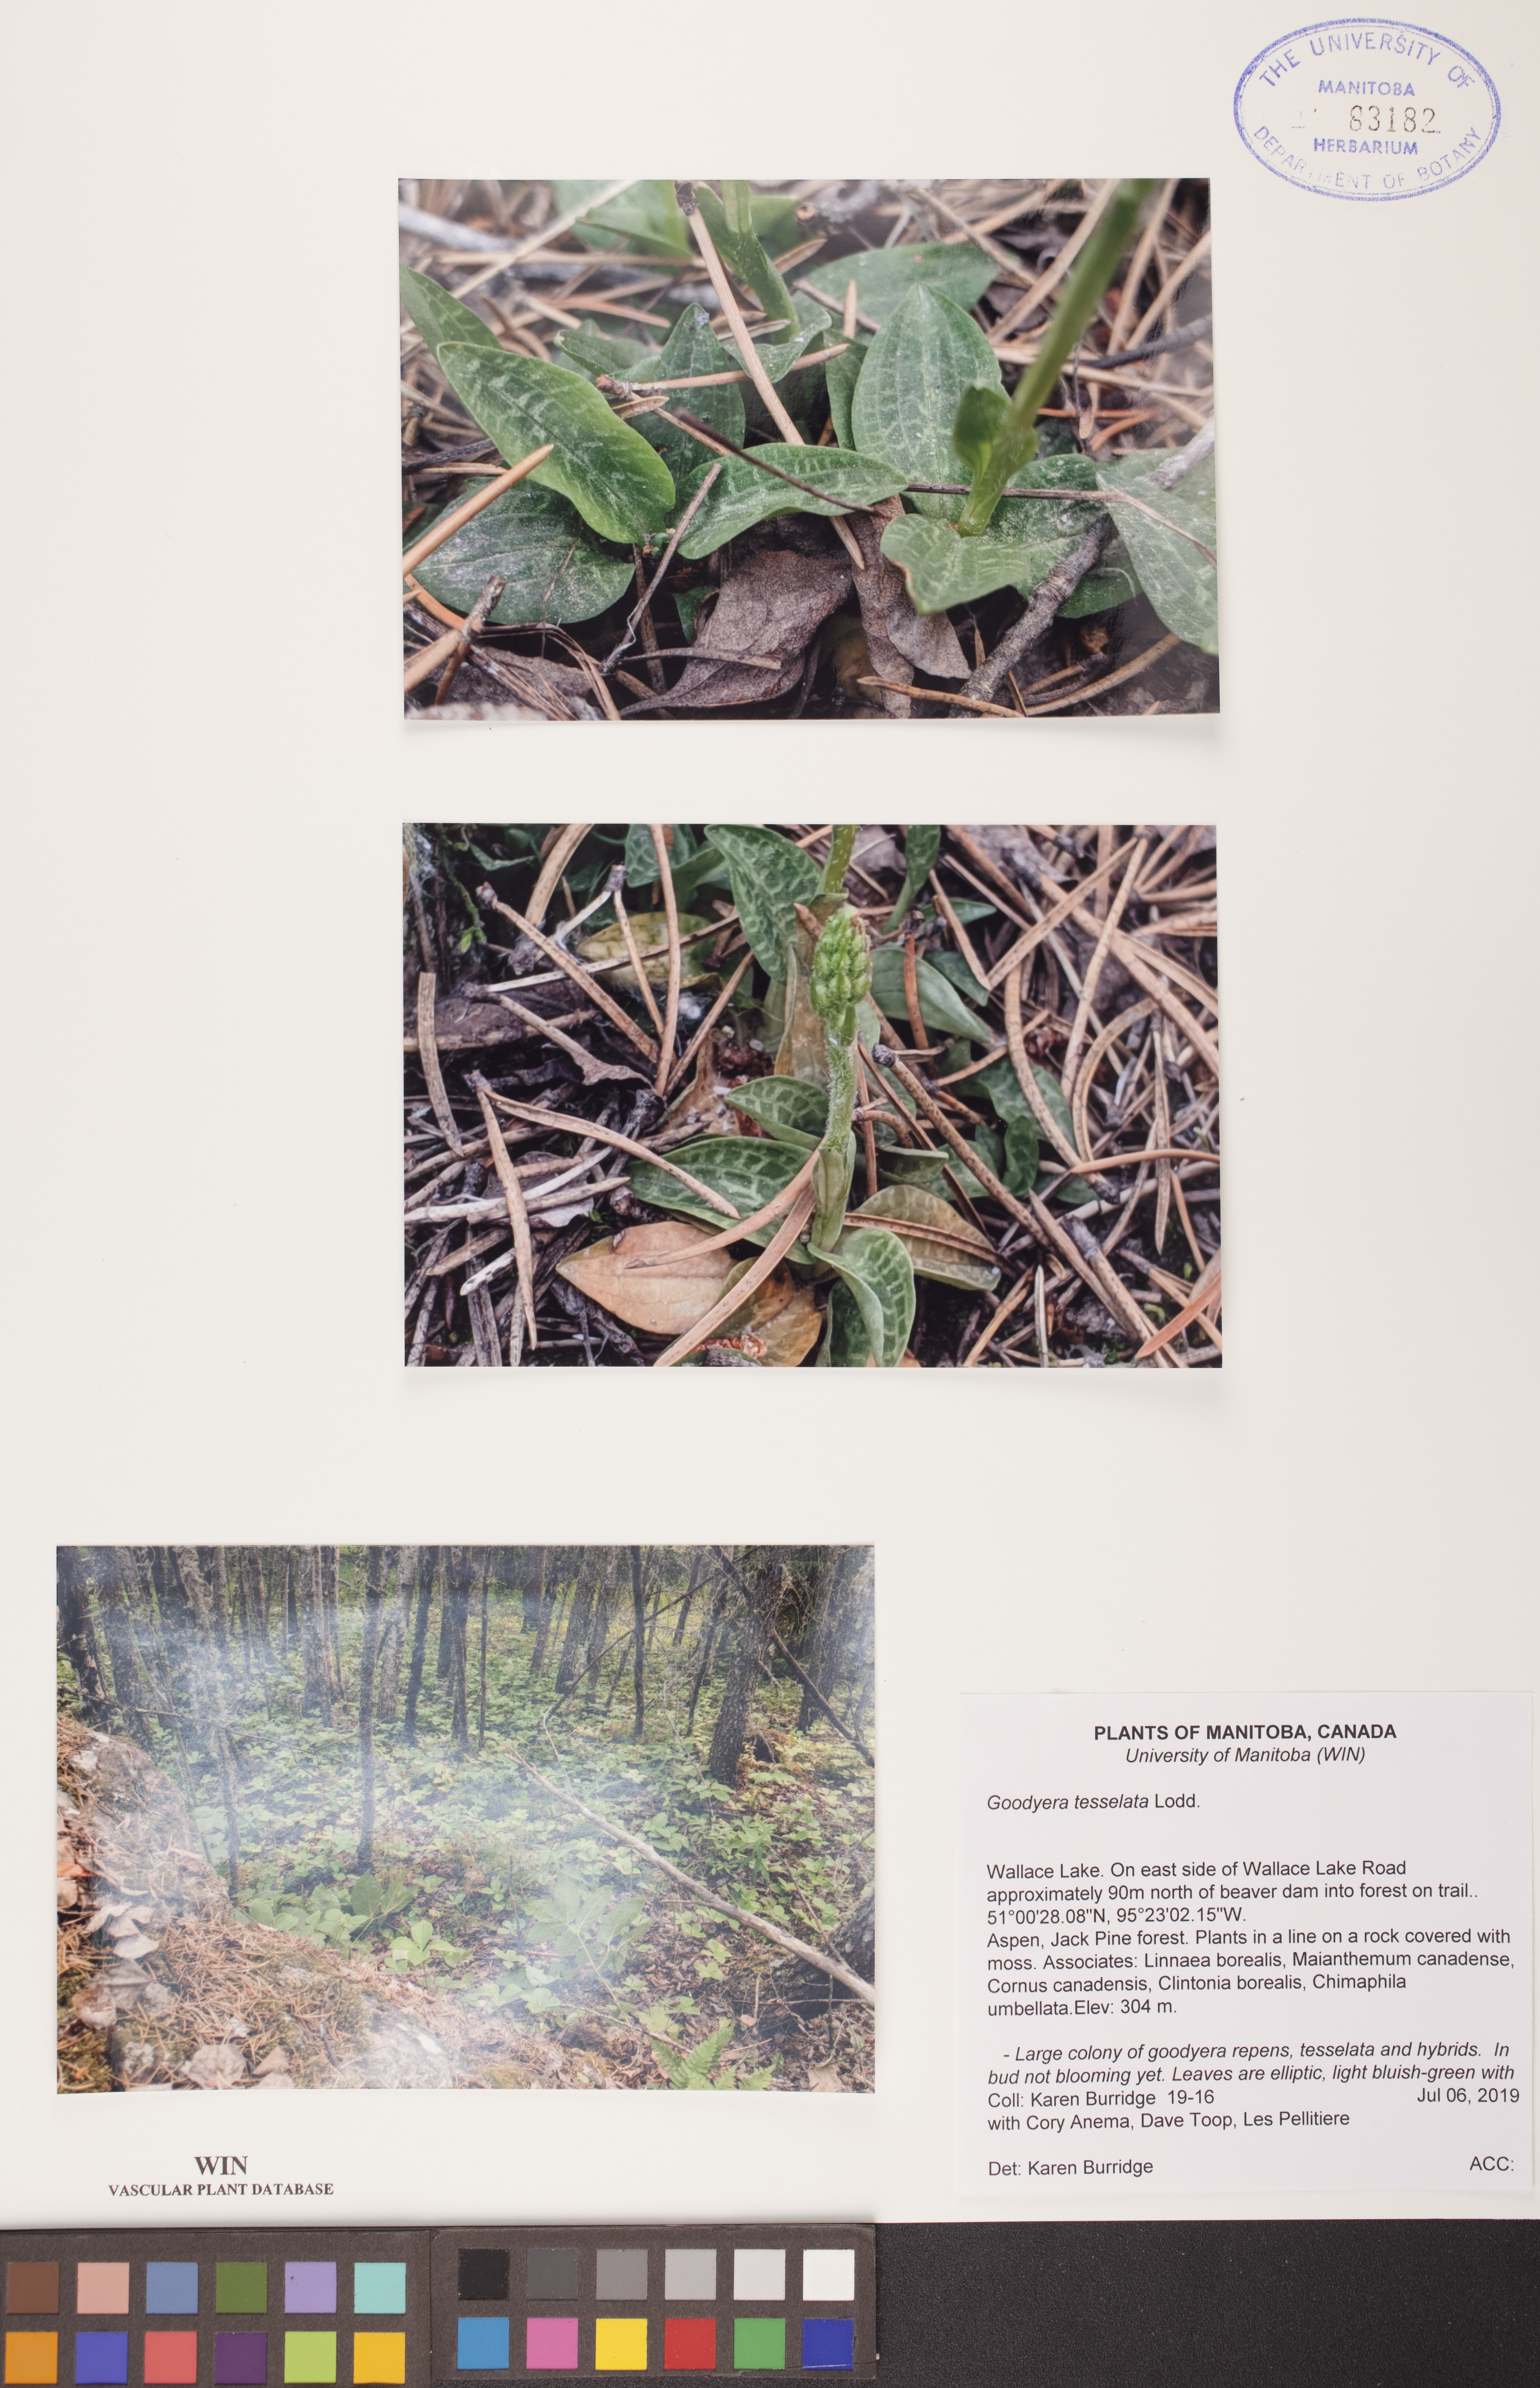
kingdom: Plantae
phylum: Tracheophyta
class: Liliopsida
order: Asparagales
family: Orchidaceae
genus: Goodyera
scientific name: Goodyera tesselata
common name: Checkered rattlesnake-plantain
